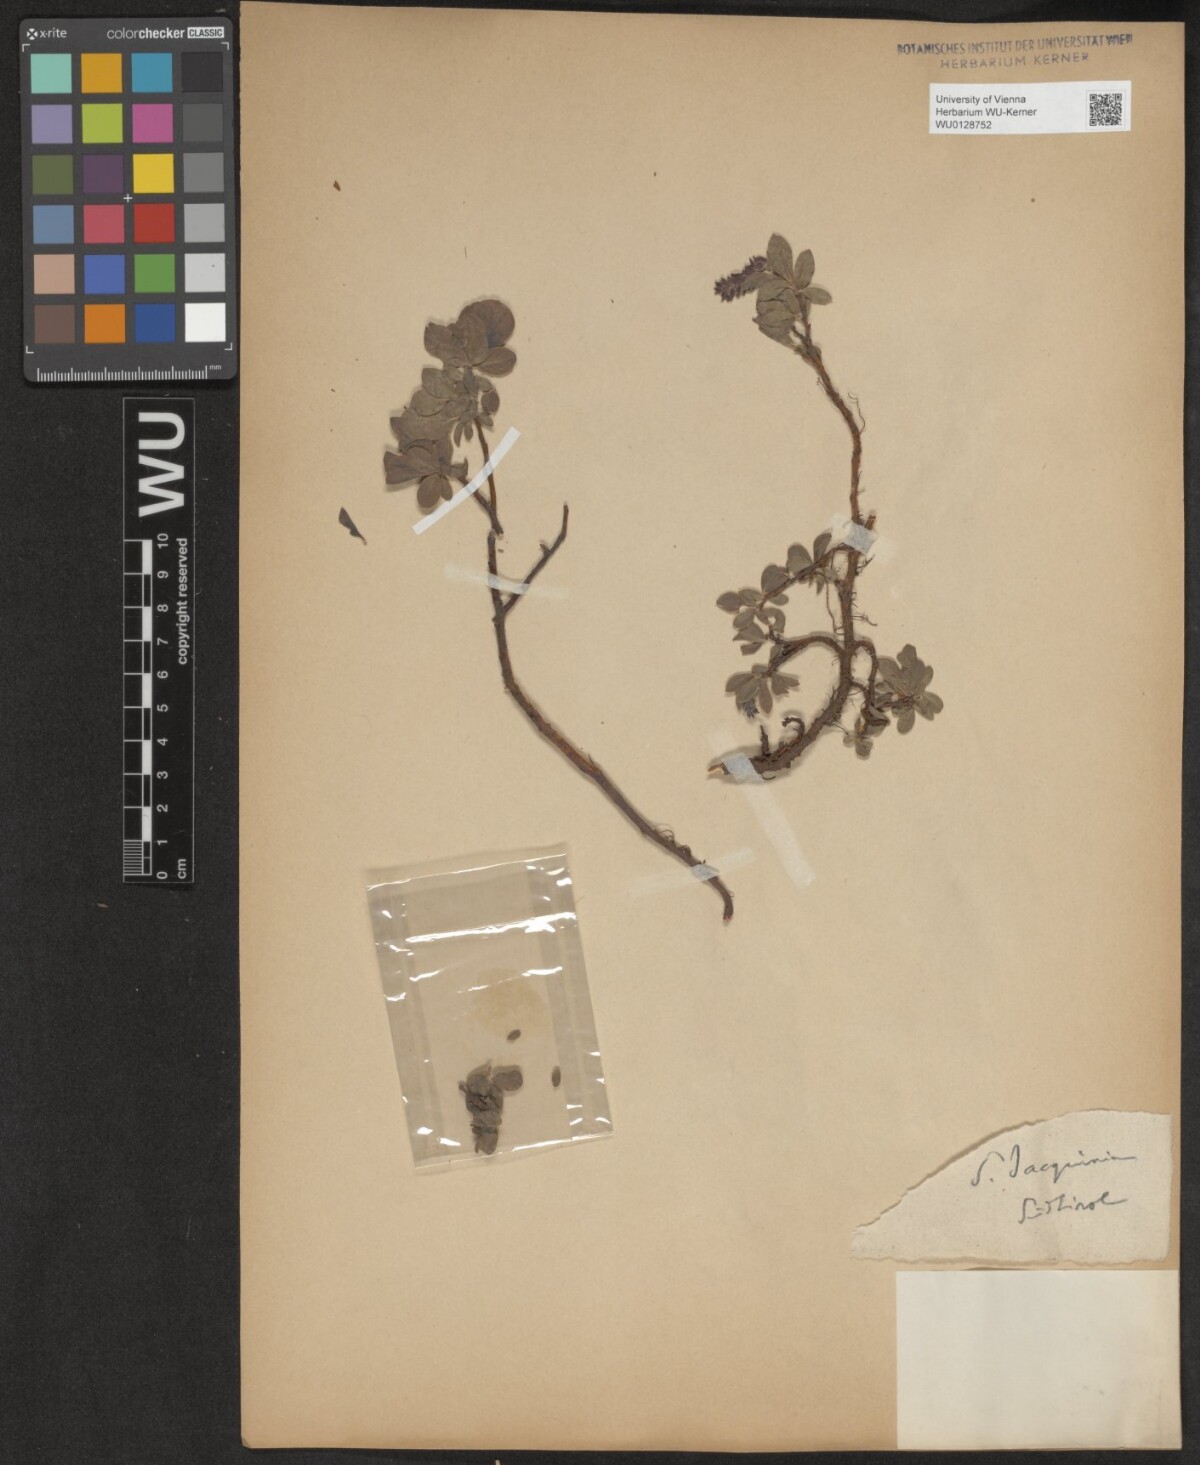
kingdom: Plantae
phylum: Tracheophyta
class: Magnoliopsida
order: Malpighiales
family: Salicaceae
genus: Salix
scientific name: Salix alpina
